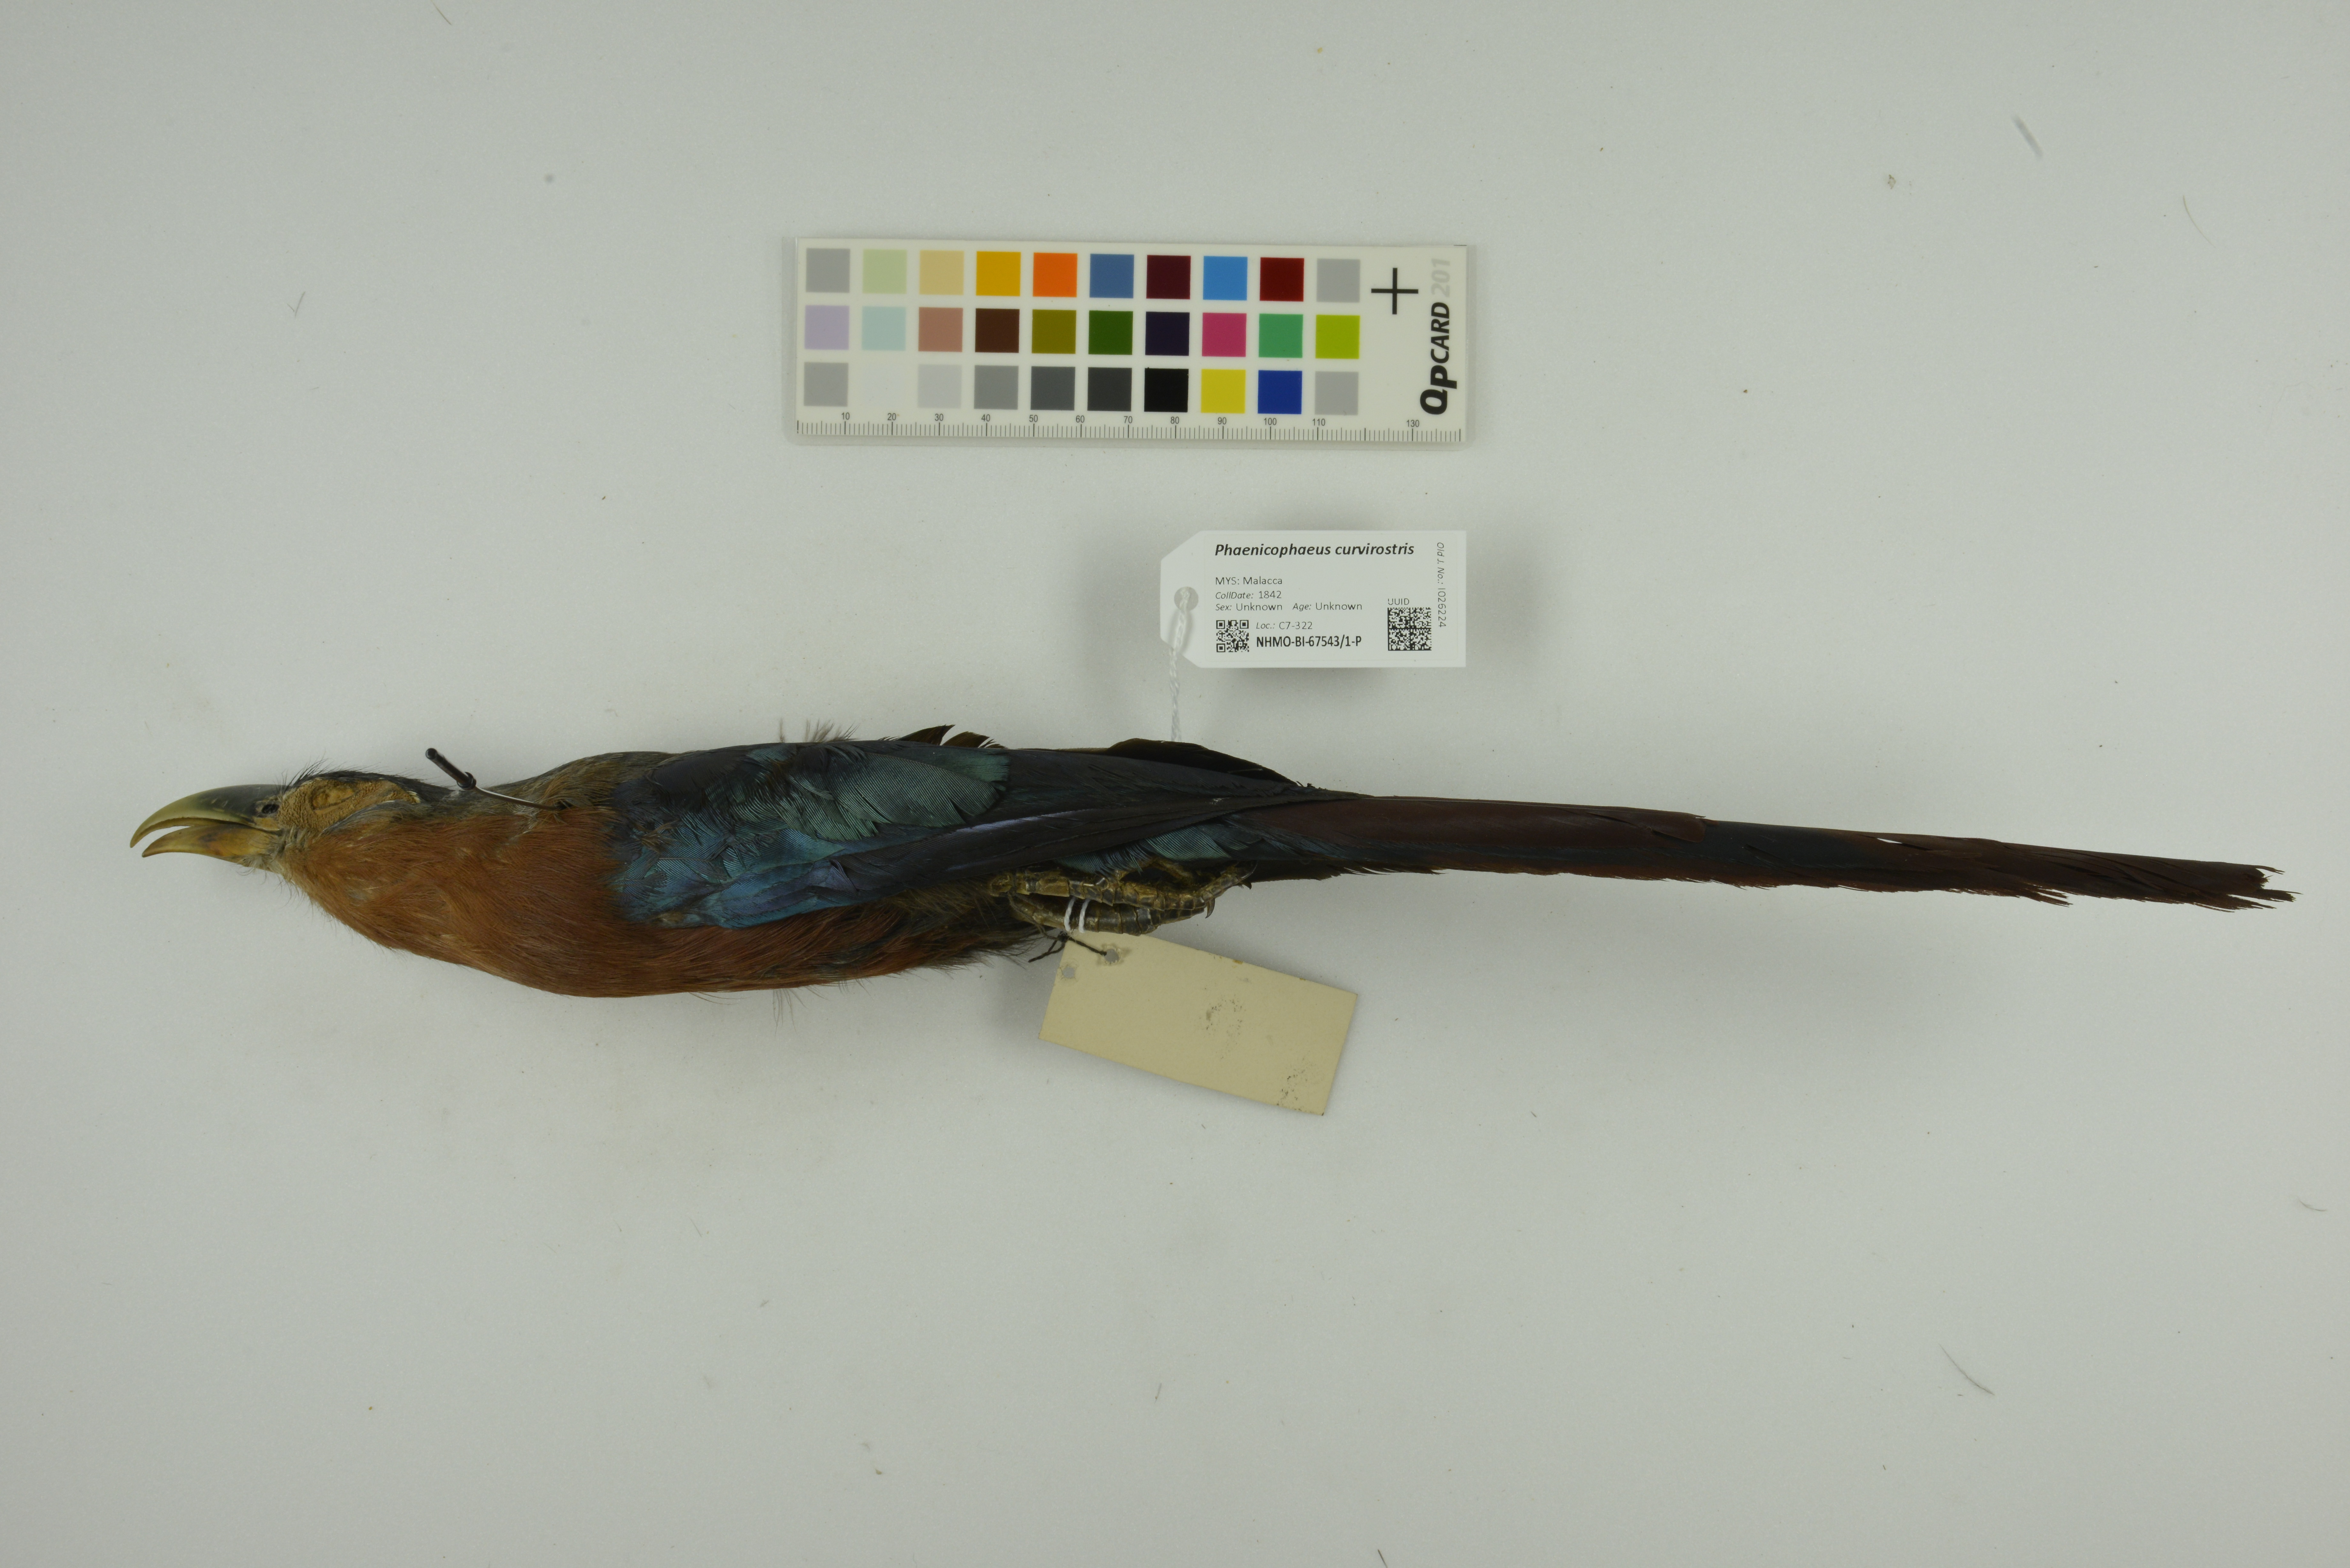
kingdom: Animalia
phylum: Chordata
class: Aves
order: Cuculiformes
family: Cuculidae
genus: Zanclostomus
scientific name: Zanclostomus curvirostris
